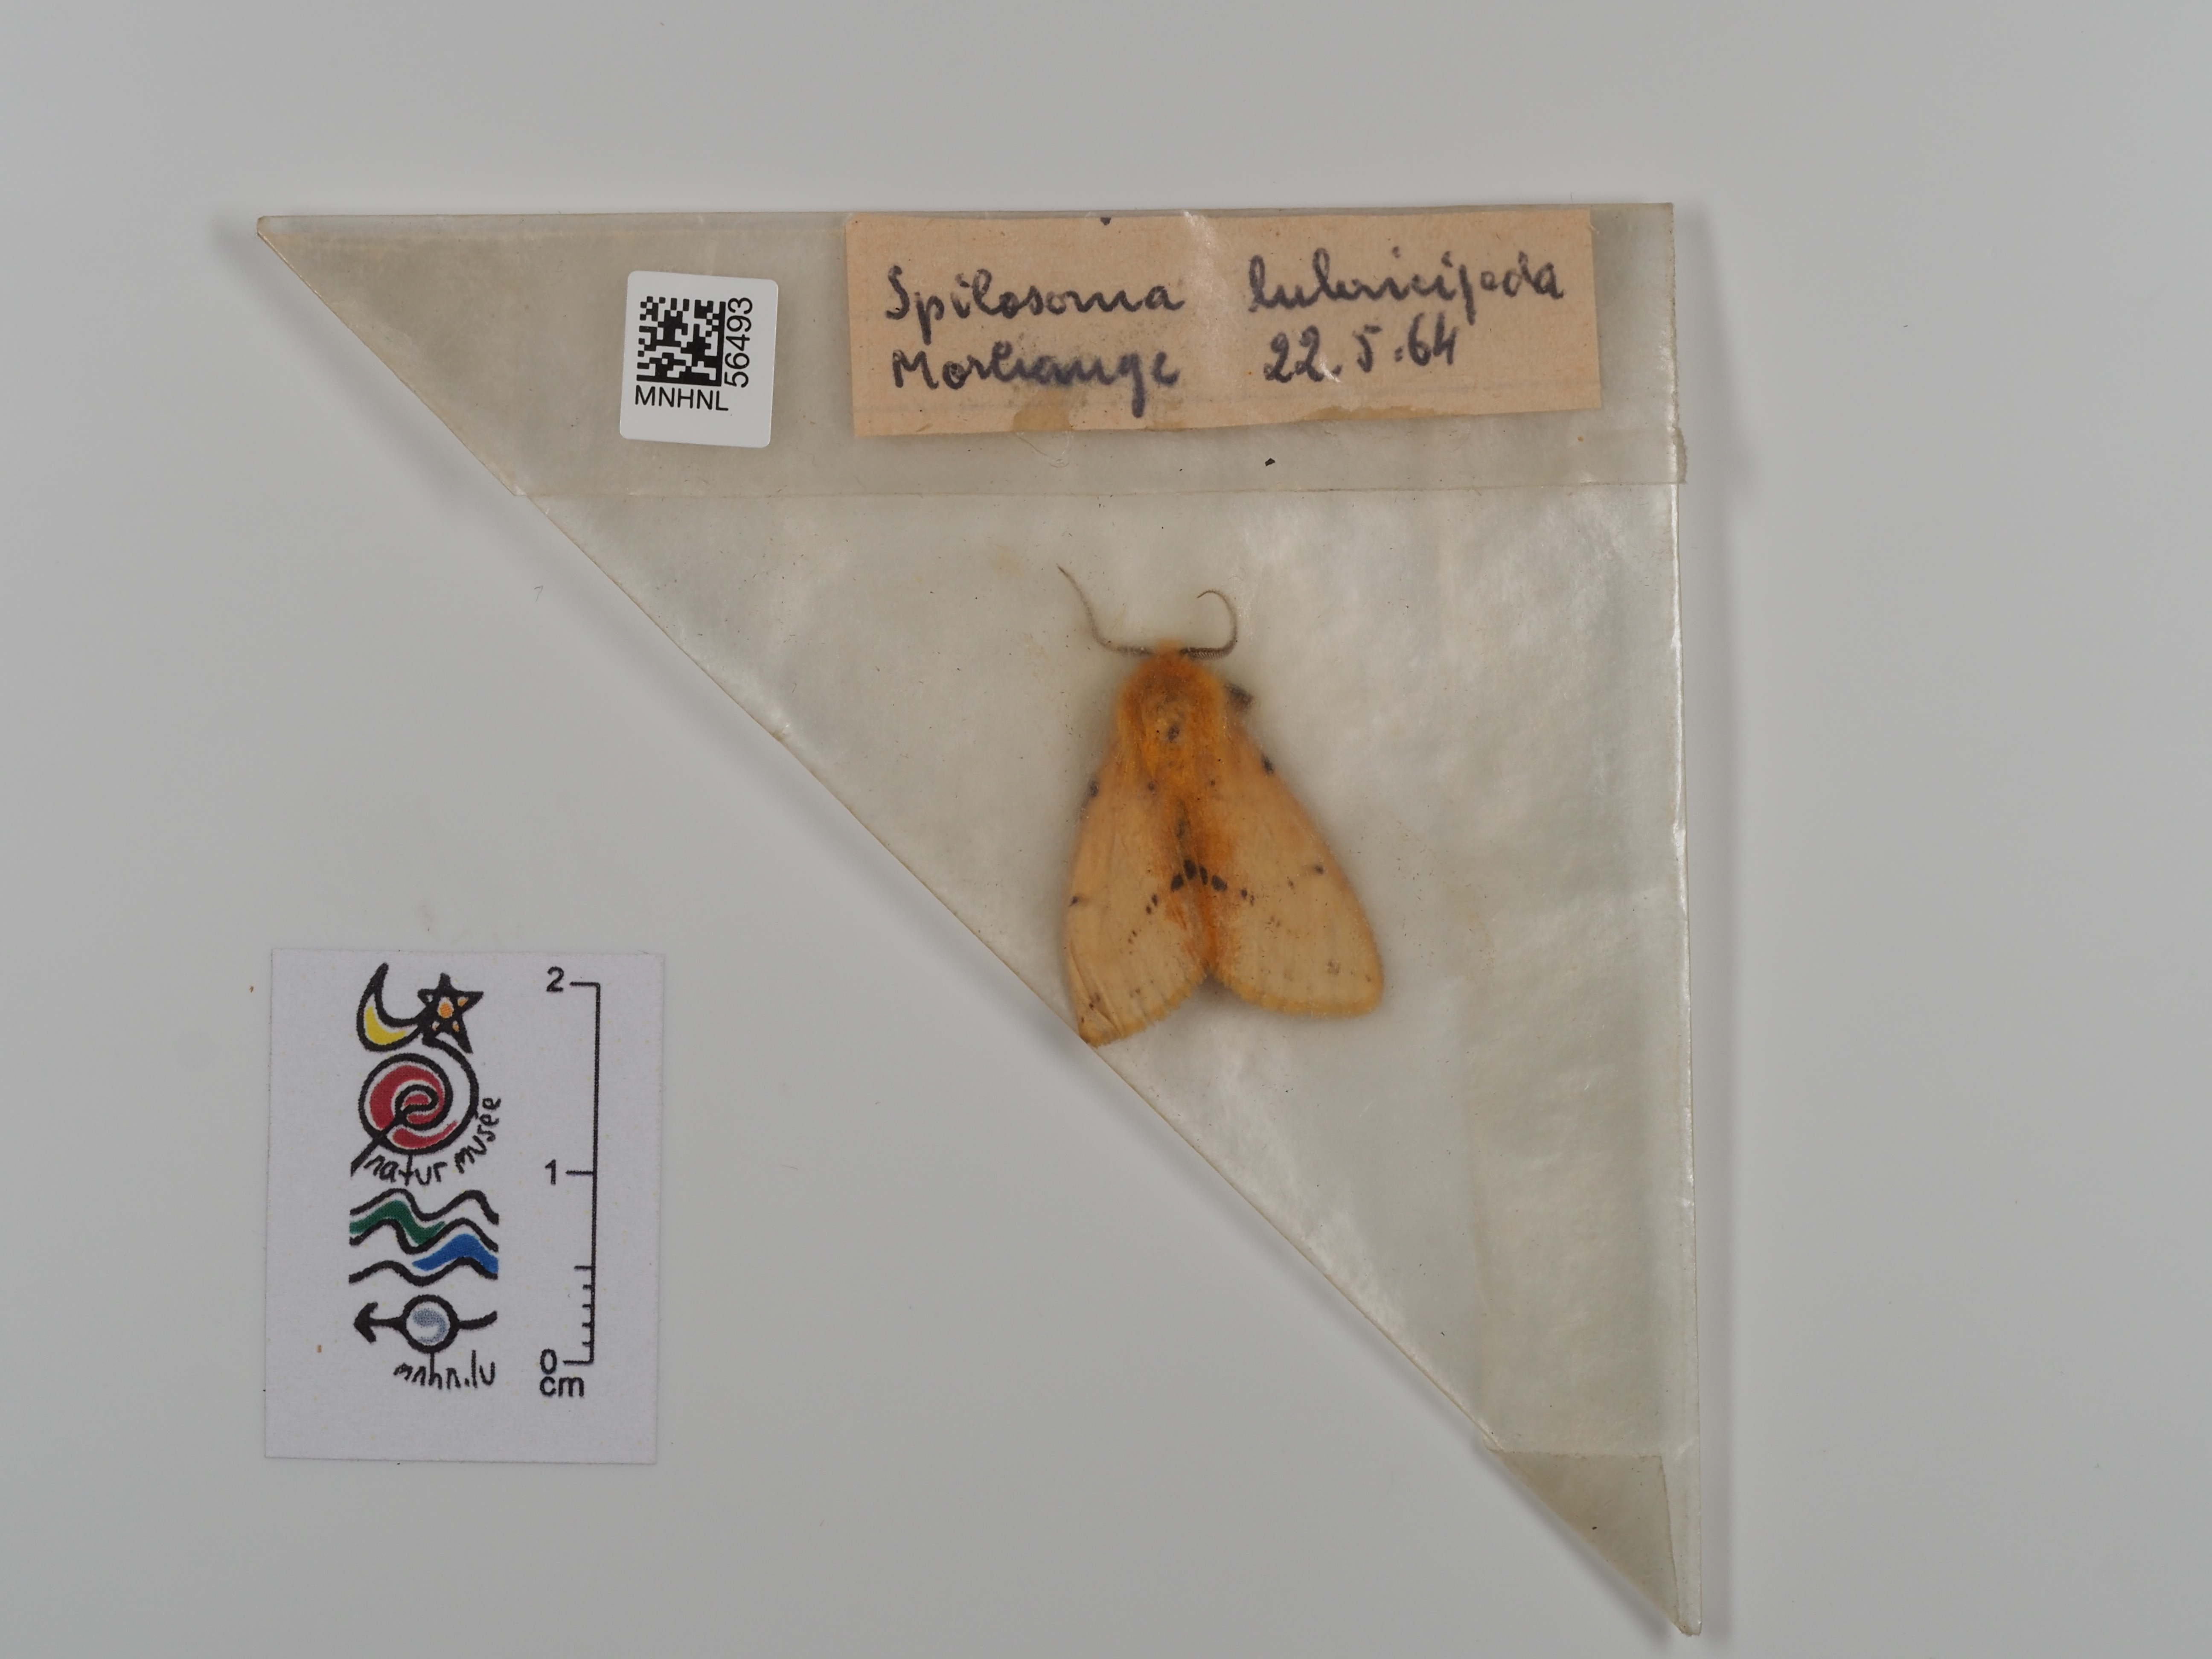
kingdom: Animalia
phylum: Arthropoda
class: Insecta
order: Lepidoptera
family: Erebidae
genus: Spilosoma
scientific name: Spilosoma lubricipeda
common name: White ermine
